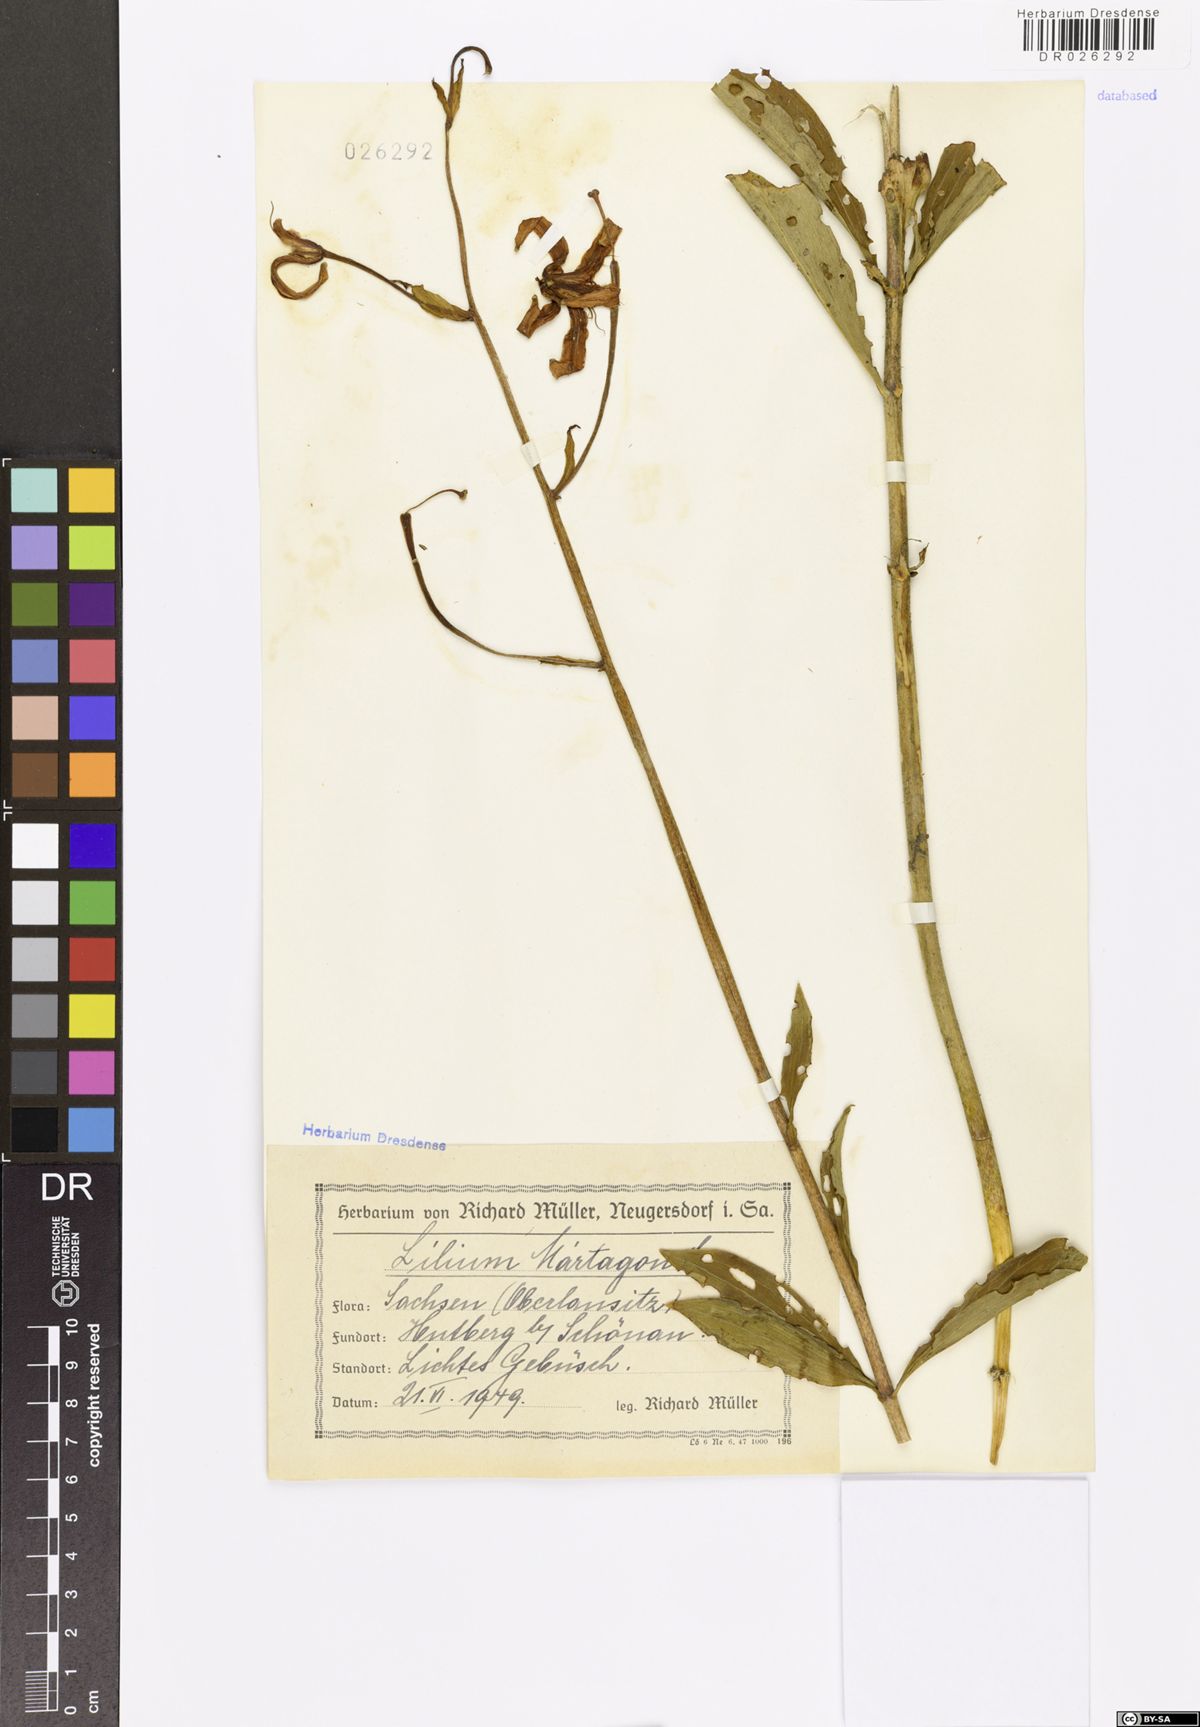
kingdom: Plantae
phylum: Tracheophyta
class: Liliopsida
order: Liliales
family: Liliaceae
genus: Lilium
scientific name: Lilium martagon
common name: Martagon lily
